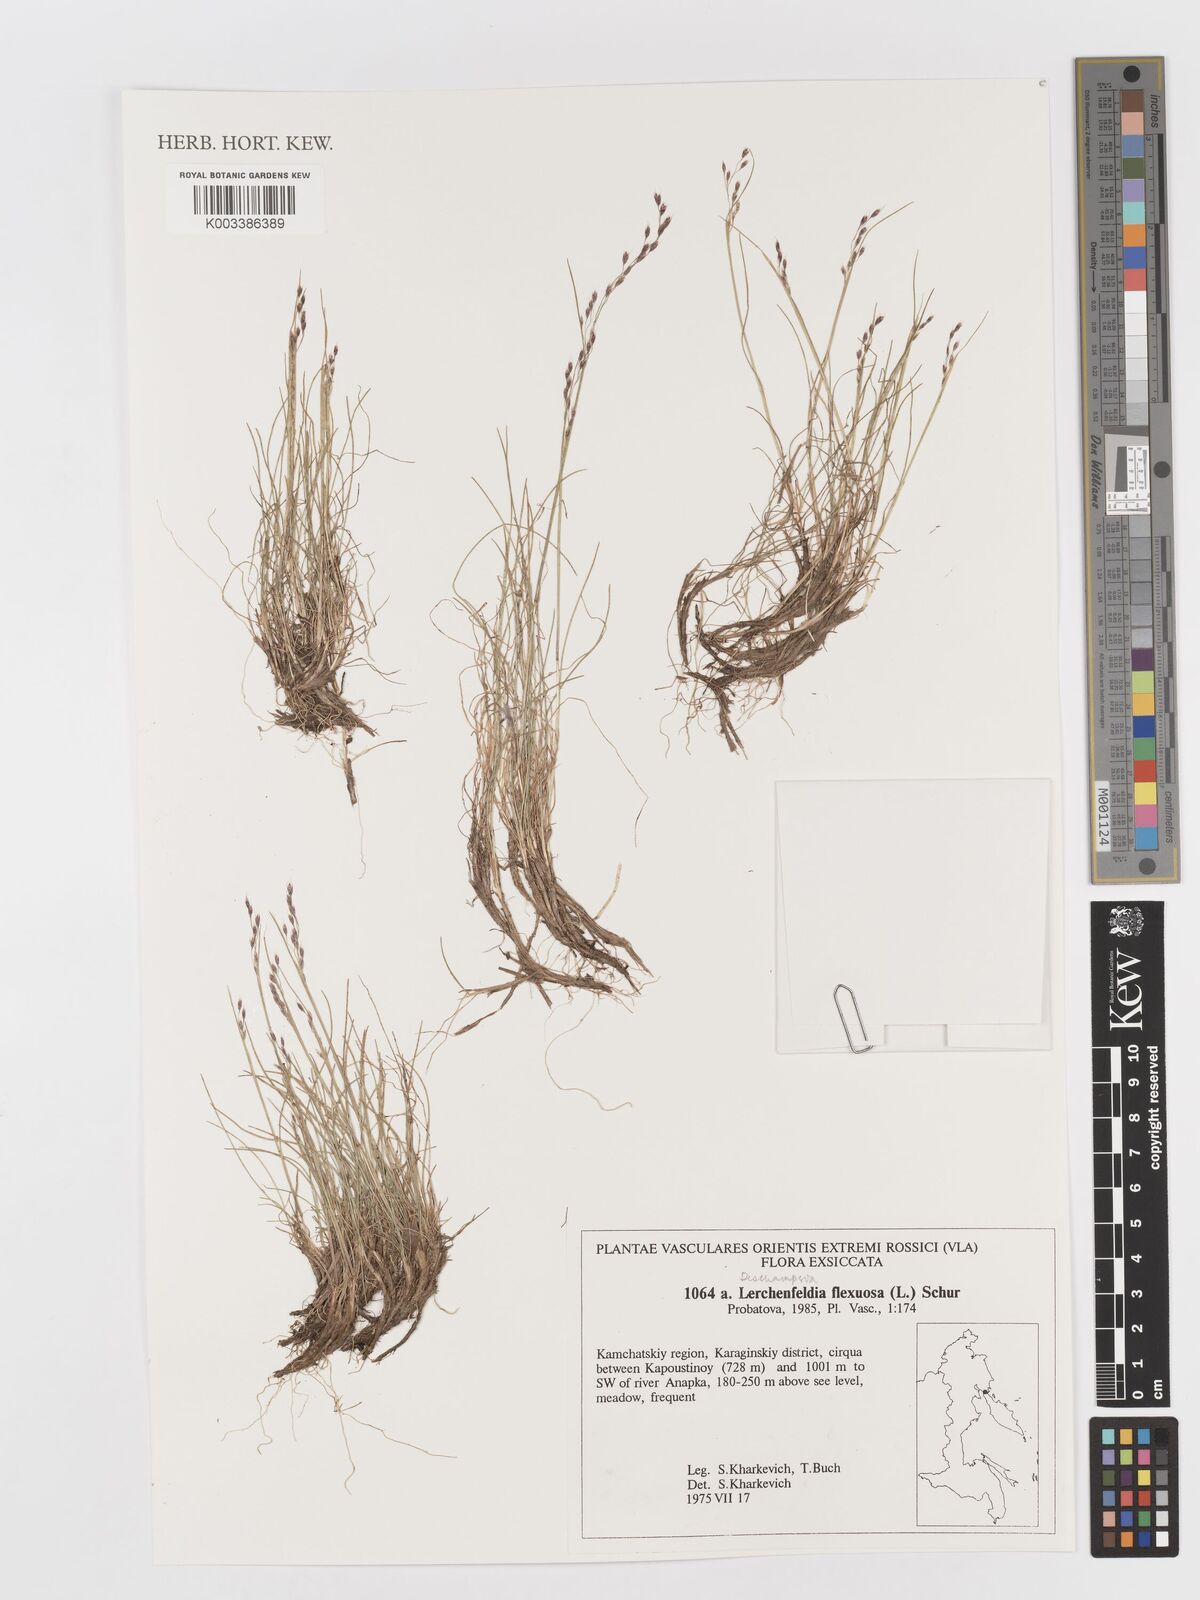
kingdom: Plantae
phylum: Tracheophyta
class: Liliopsida
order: Poales
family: Poaceae
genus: Avenella
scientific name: Avenella flexuosa
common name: Wavy hairgrass
